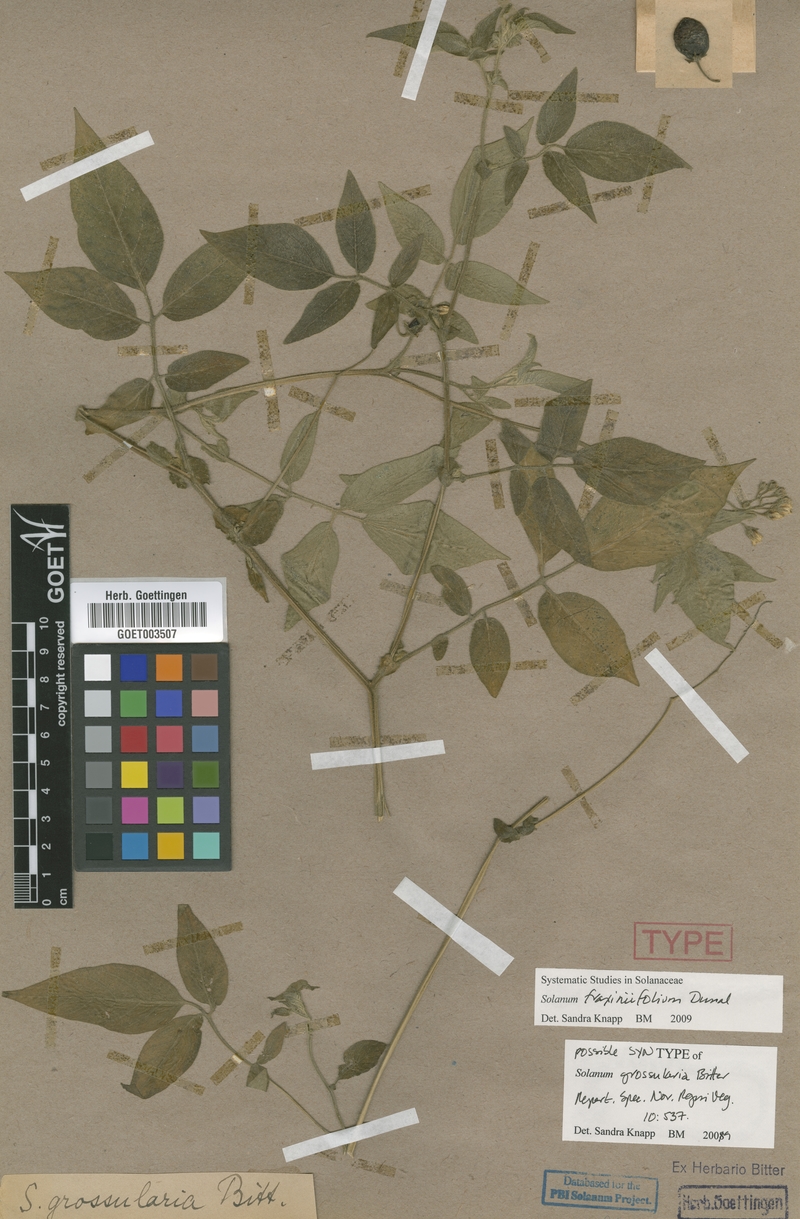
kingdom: Plantae
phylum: Tracheophyta
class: Magnoliopsida
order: Solanales
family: Solanaceae
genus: Solanum
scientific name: Solanum fraxinifolium
